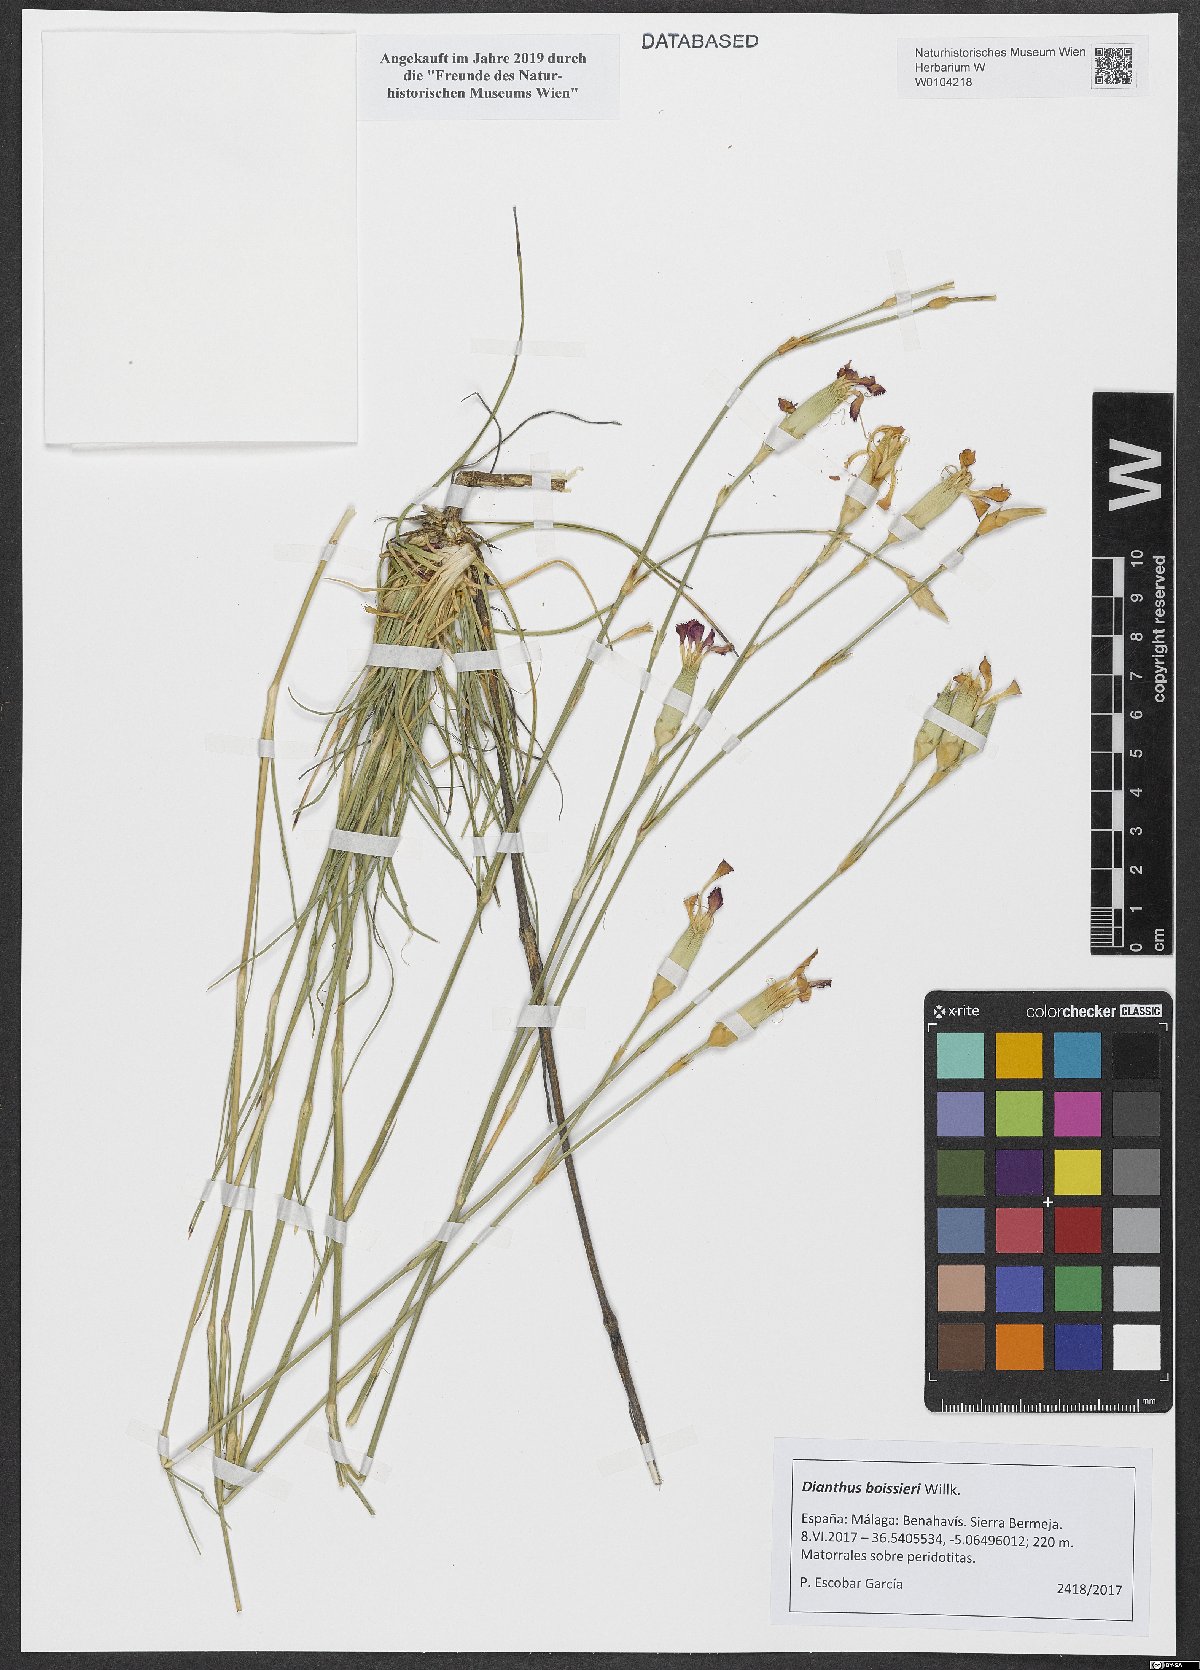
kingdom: Plantae
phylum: Tracheophyta
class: Magnoliopsida
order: Caryophyllales
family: Caryophyllaceae
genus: Dianthus
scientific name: Dianthus sylvestris
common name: Wood pink
